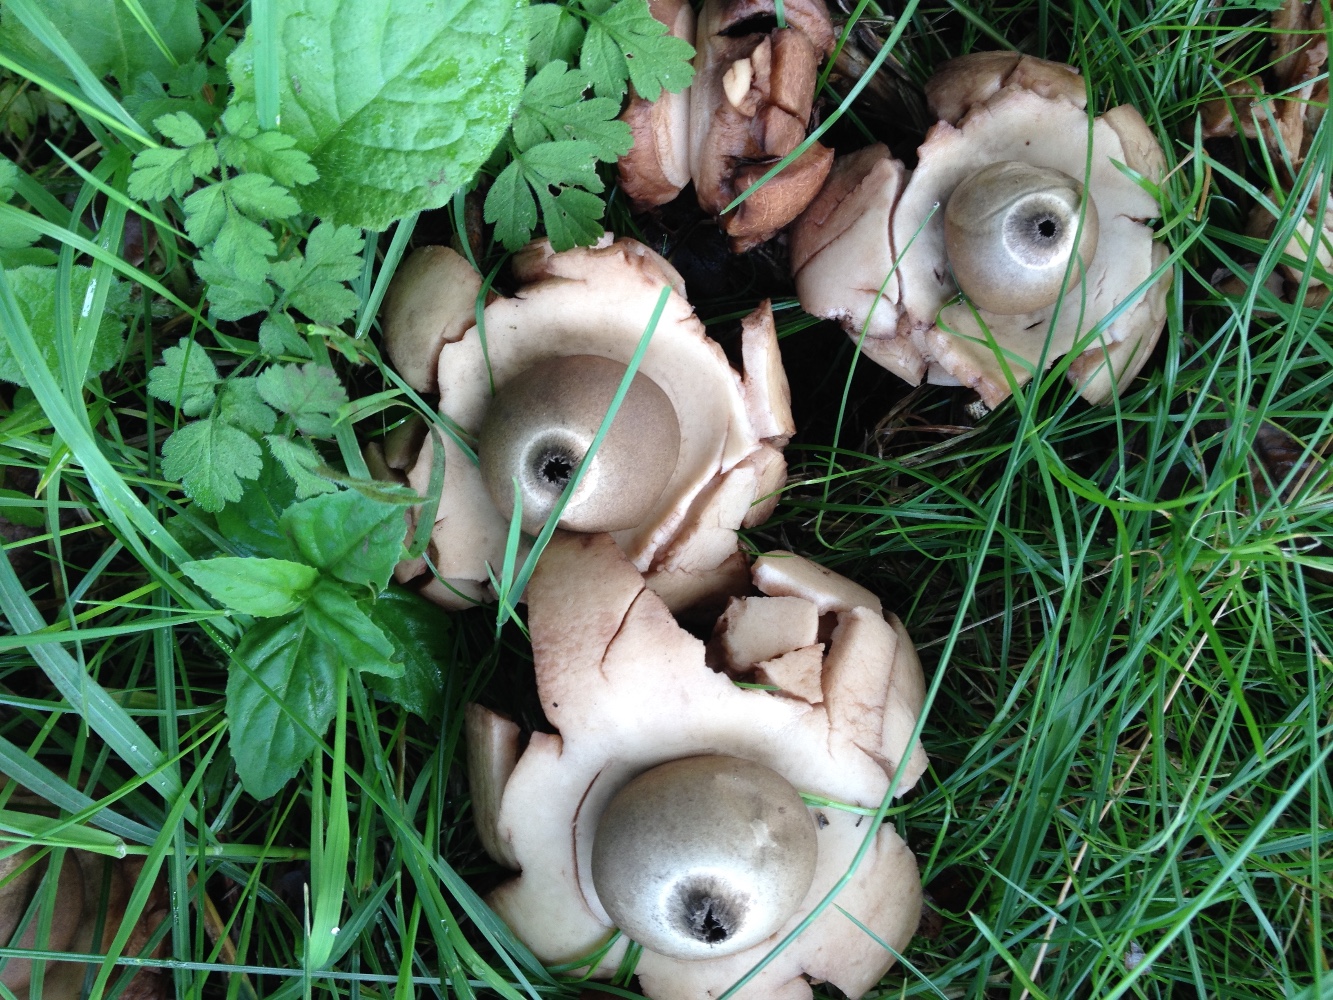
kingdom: Fungi
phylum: Basidiomycota
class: Agaricomycetes
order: Geastrales
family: Geastraceae
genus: Geastrum
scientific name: Geastrum michelianum
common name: kødet stjernebold
